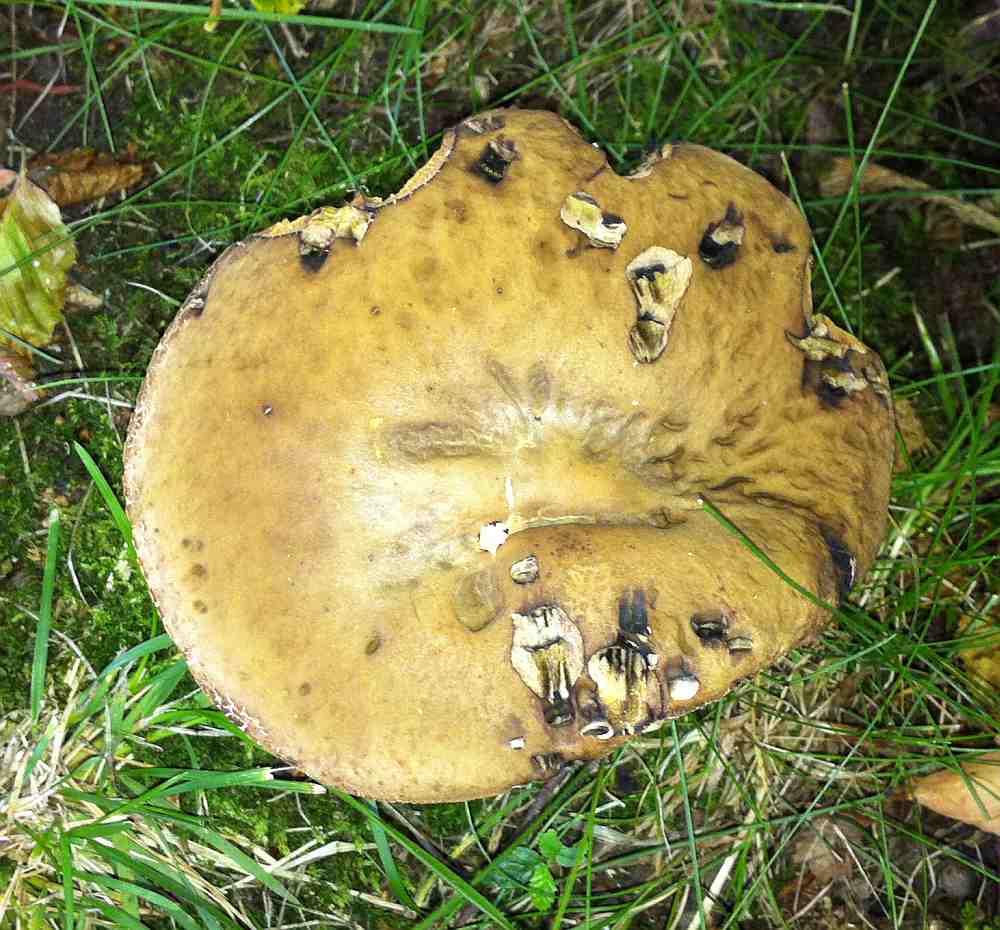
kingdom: Fungi
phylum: Basidiomycota
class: Agaricomycetes
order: Boletales
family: Boletaceae
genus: Leccinellum
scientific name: Leccinellum pseudoscabrum
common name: avnbøg-skælrørhat
